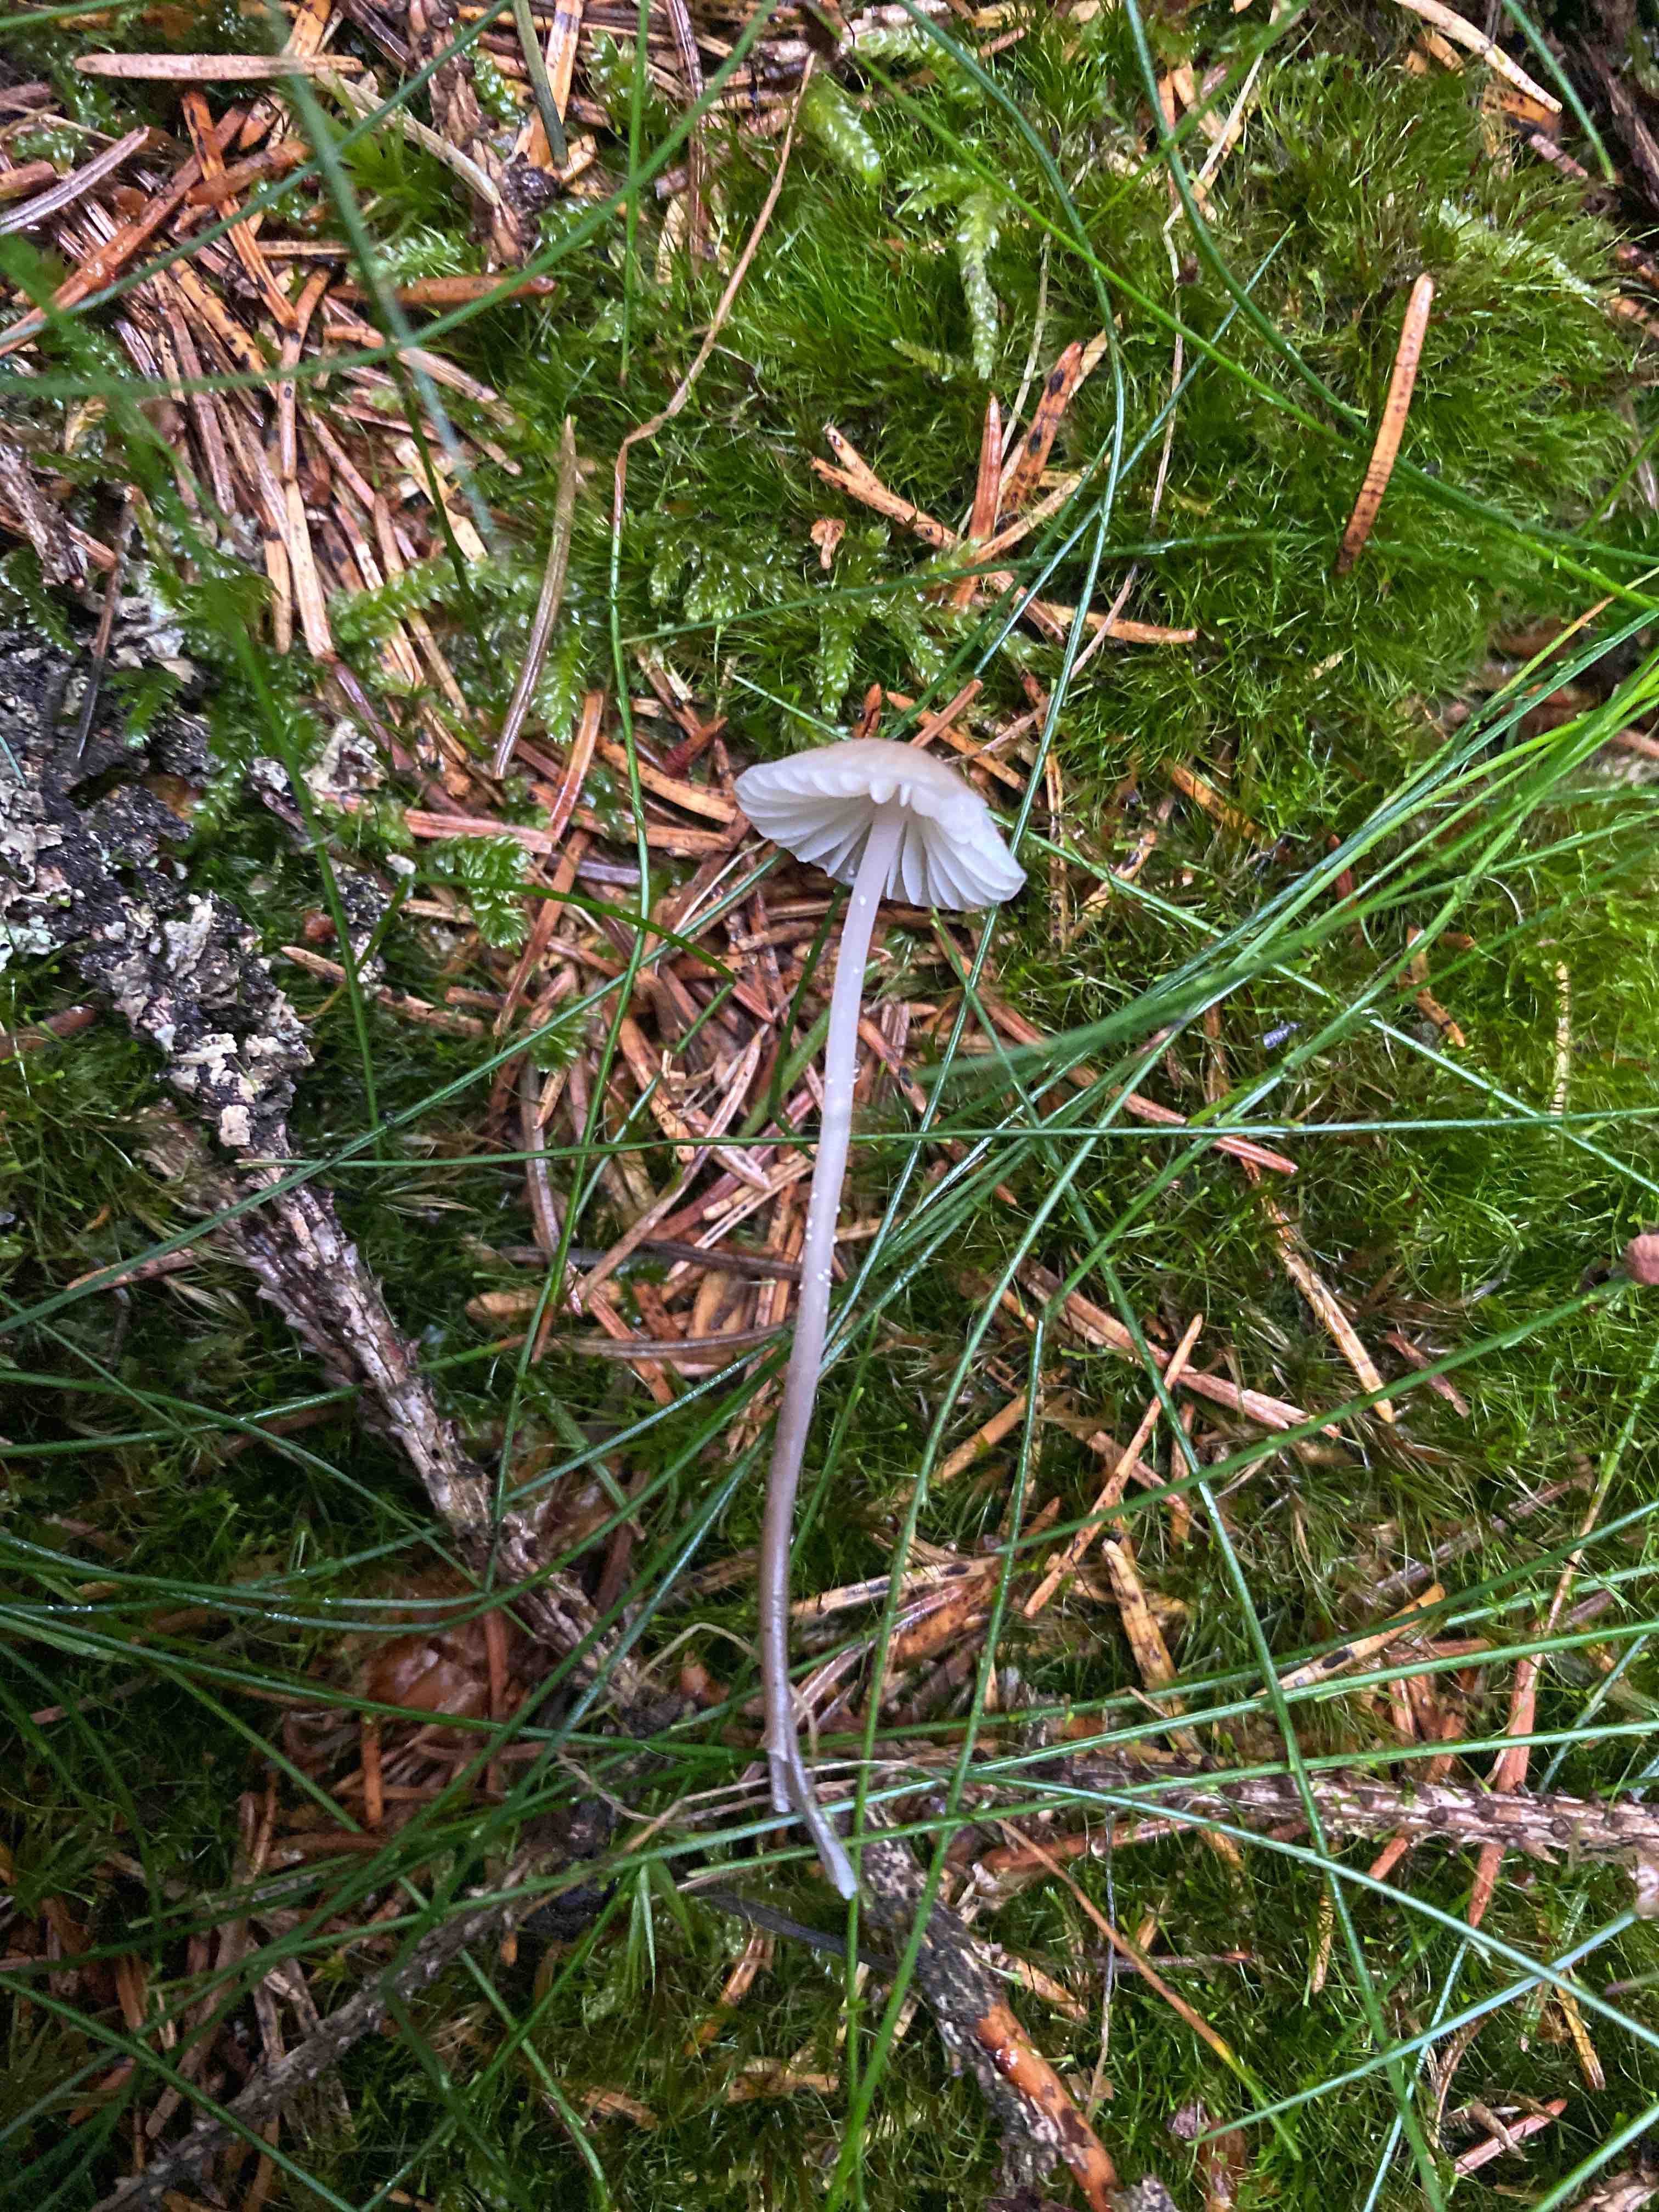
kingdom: Fungi
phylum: Basidiomycota
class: Agaricomycetes
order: Agaricales
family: Mycenaceae
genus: Mycena
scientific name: Mycena galopus
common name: hvidmælket huesvamp
